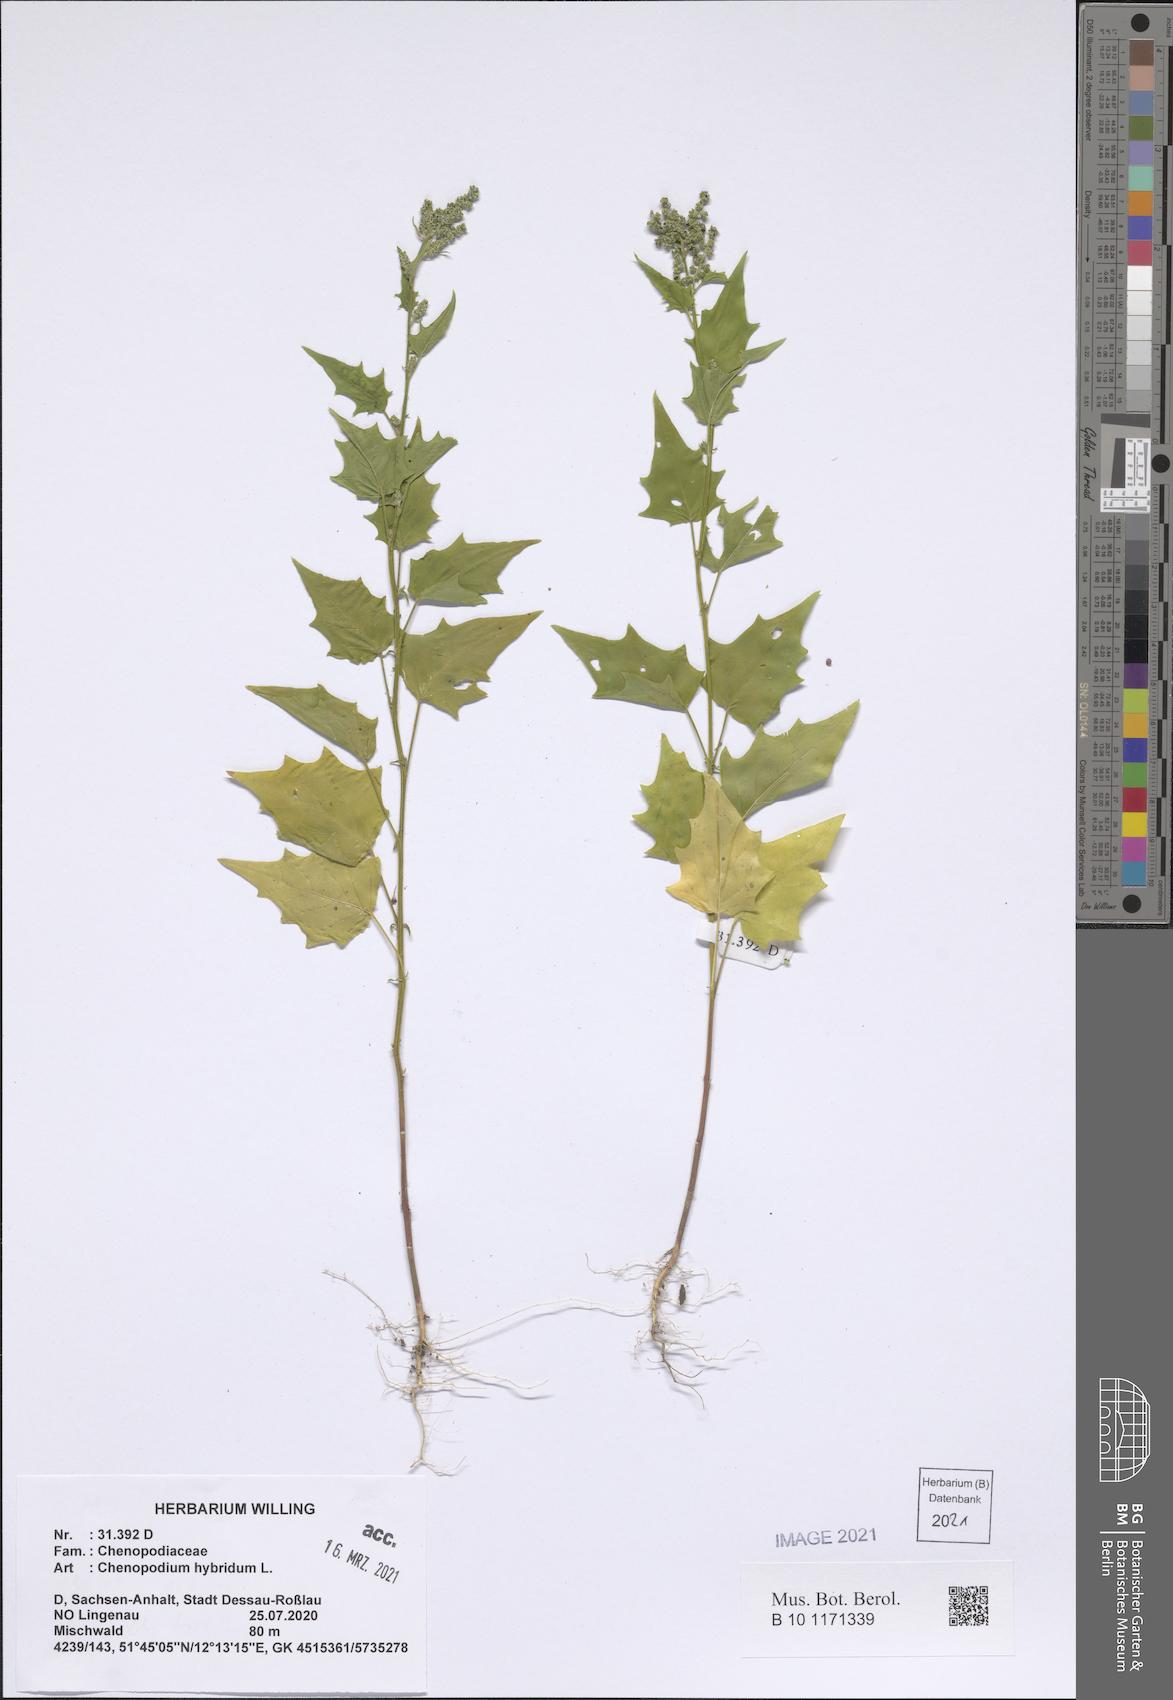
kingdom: Plantae
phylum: Tracheophyta
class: Magnoliopsida
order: Caryophyllales
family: Amaranthaceae
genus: Chenopodiastrum
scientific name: Chenopodiastrum hybridum
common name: Mapleleaf goosefoot
